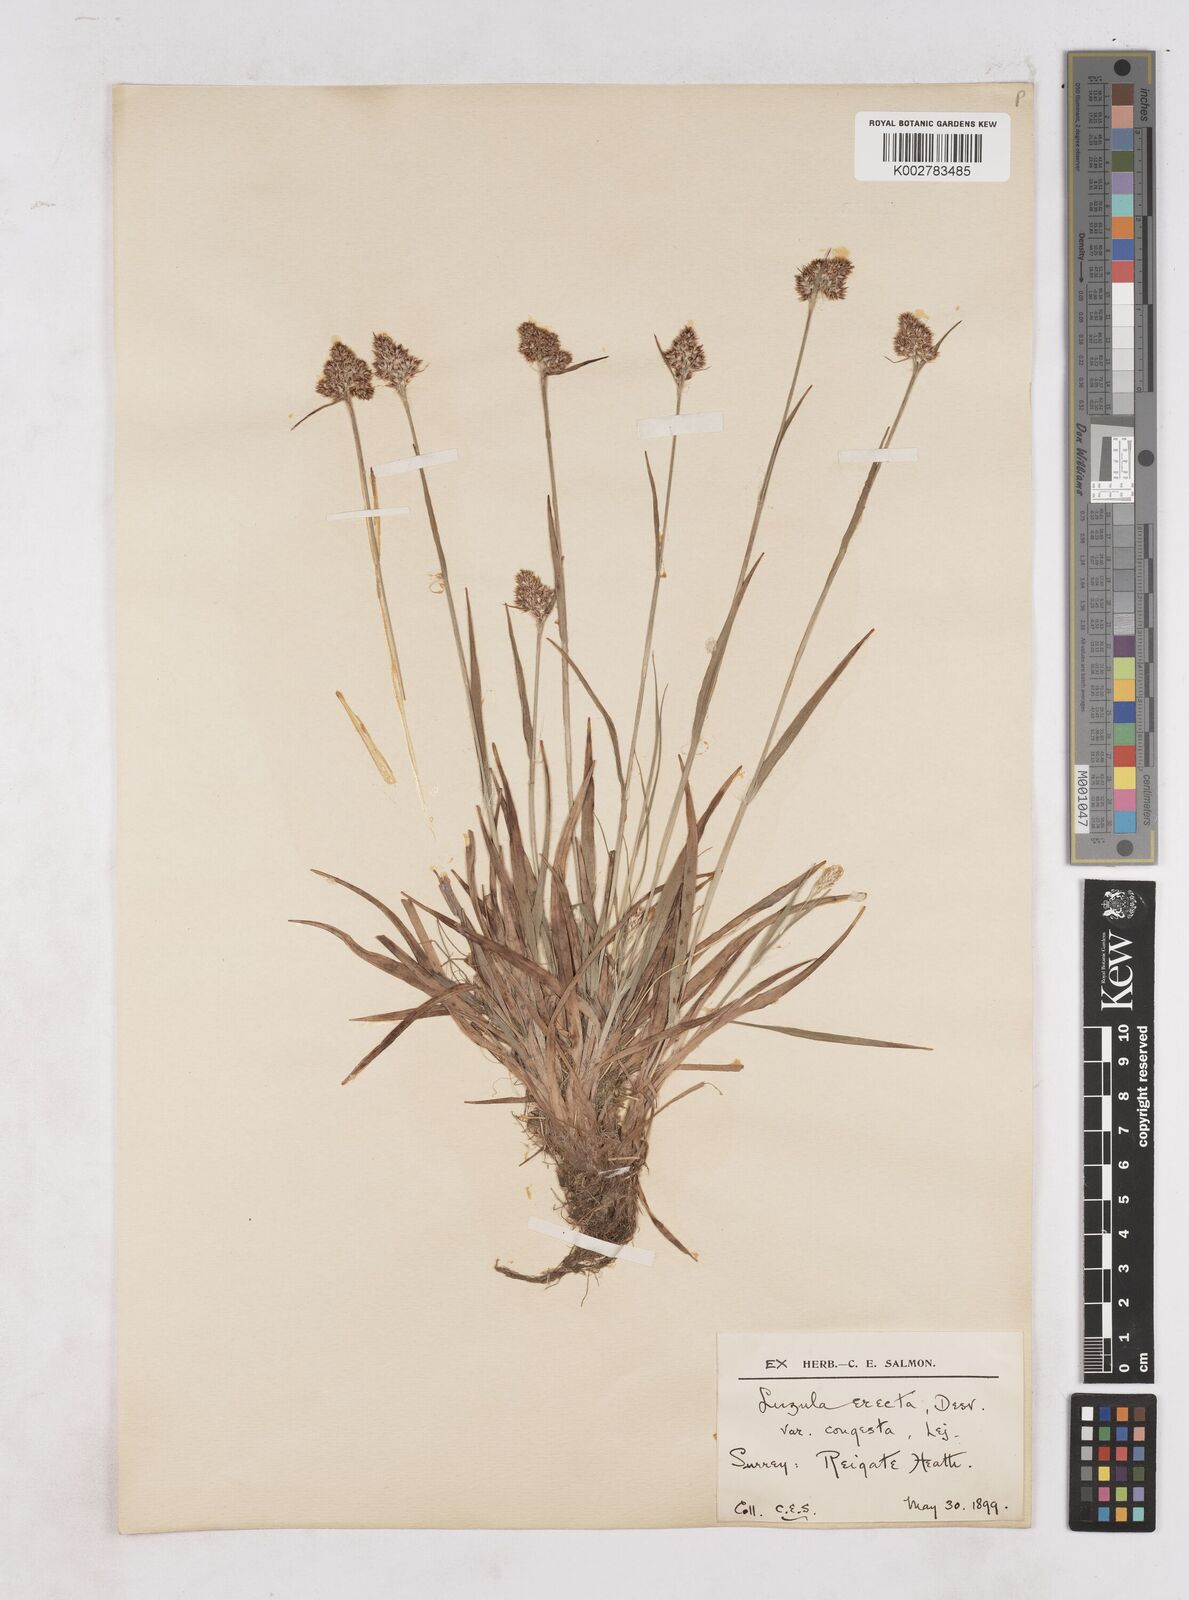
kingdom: Plantae
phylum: Tracheophyta
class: Liliopsida
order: Poales
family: Juncaceae
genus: Luzula
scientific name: Luzula campestris
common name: Field wood-rush
